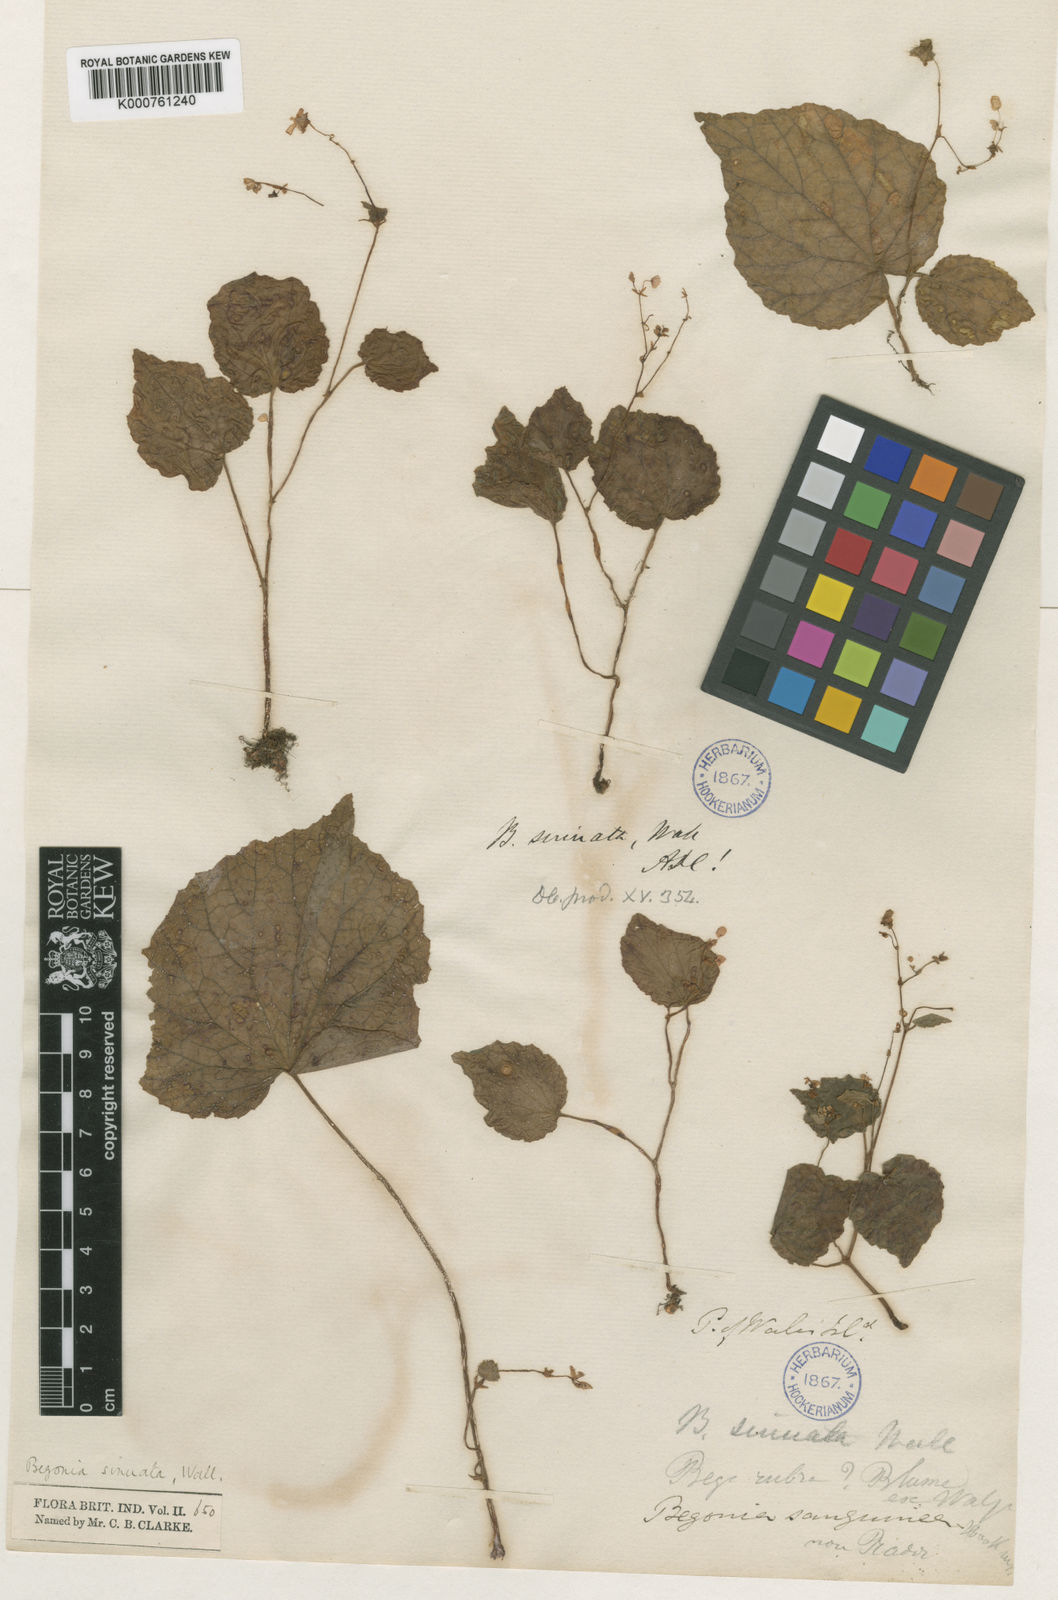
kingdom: Plantae
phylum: Tracheophyta
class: Magnoliopsida
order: Cucurbitales
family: Begoniaceae
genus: Begonia
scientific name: Begonia
